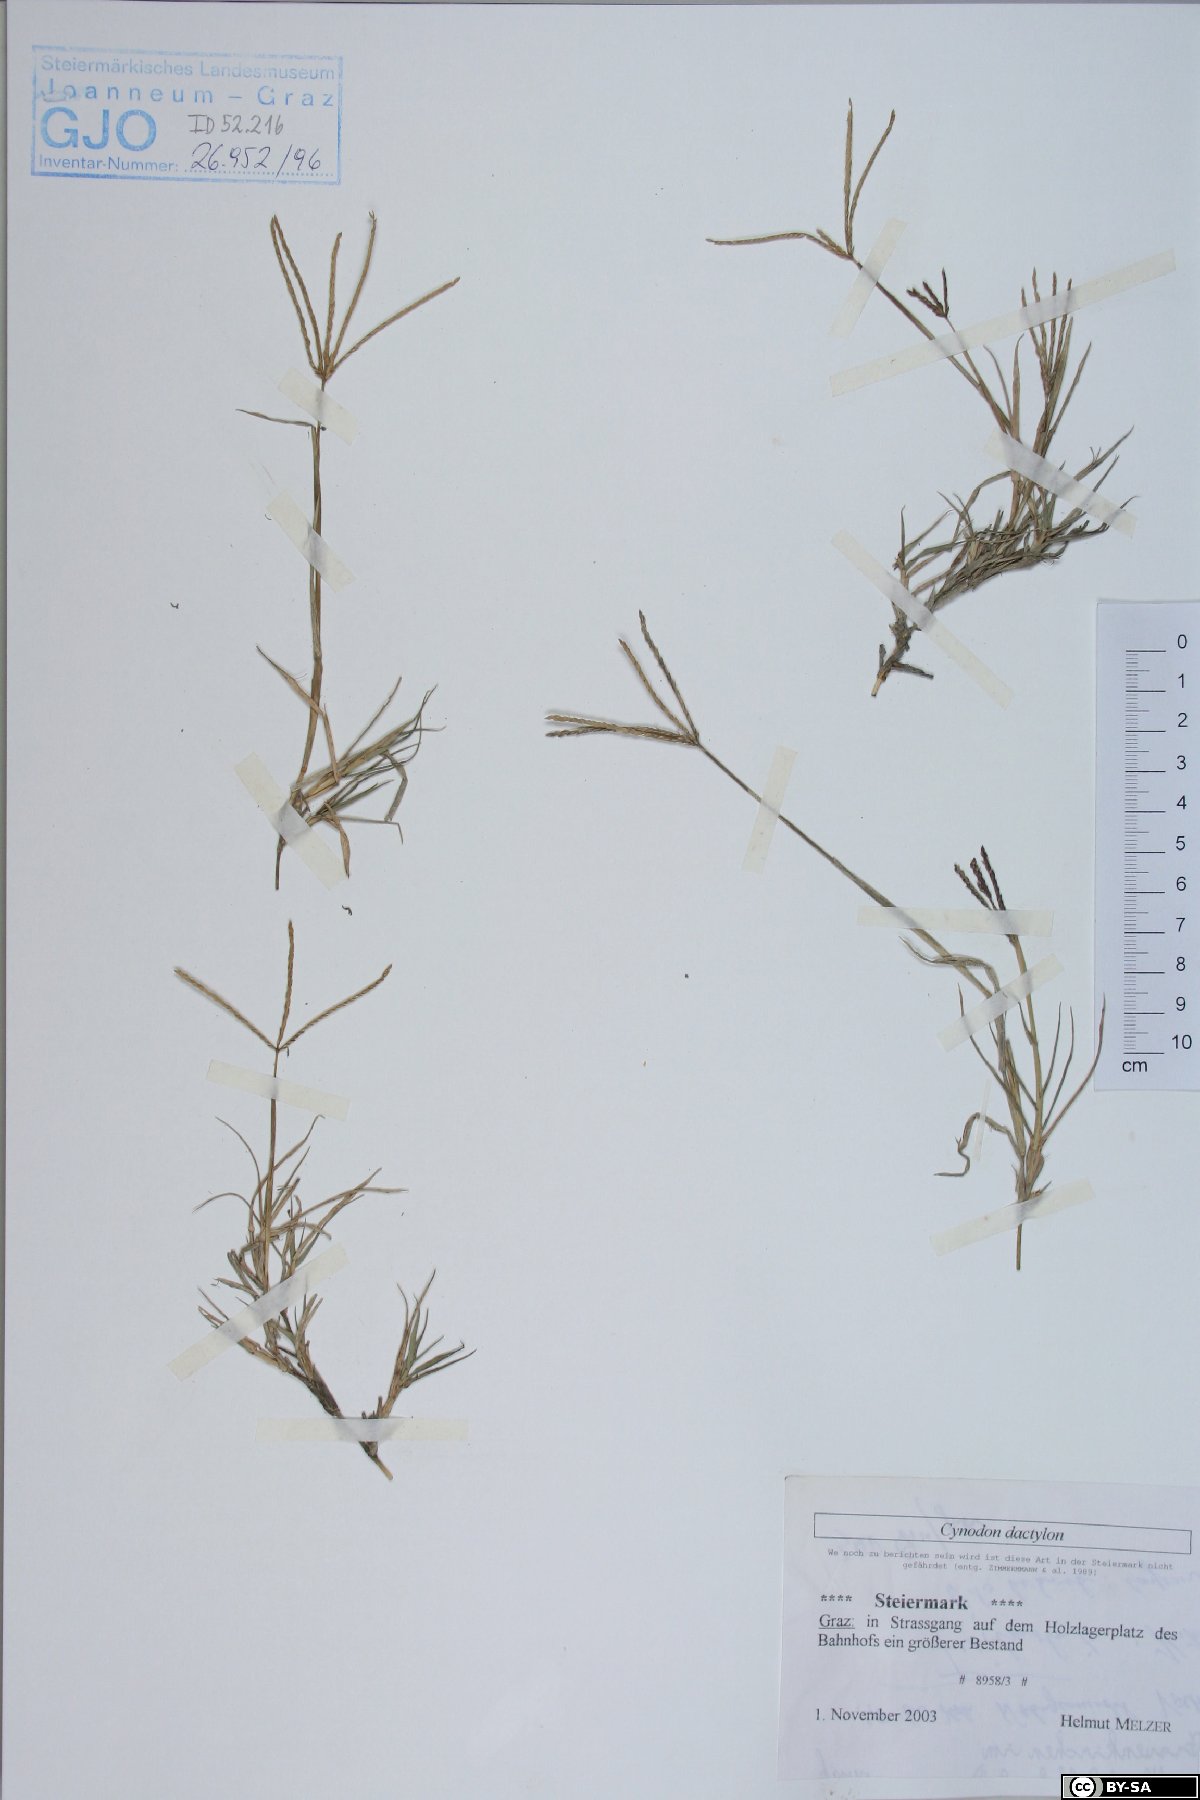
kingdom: Plantae
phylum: Tracheophyta
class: Liliopsida
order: Poales
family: Poaceae
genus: Cynodon
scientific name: Cynodon dactylon
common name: Bermuda grass
